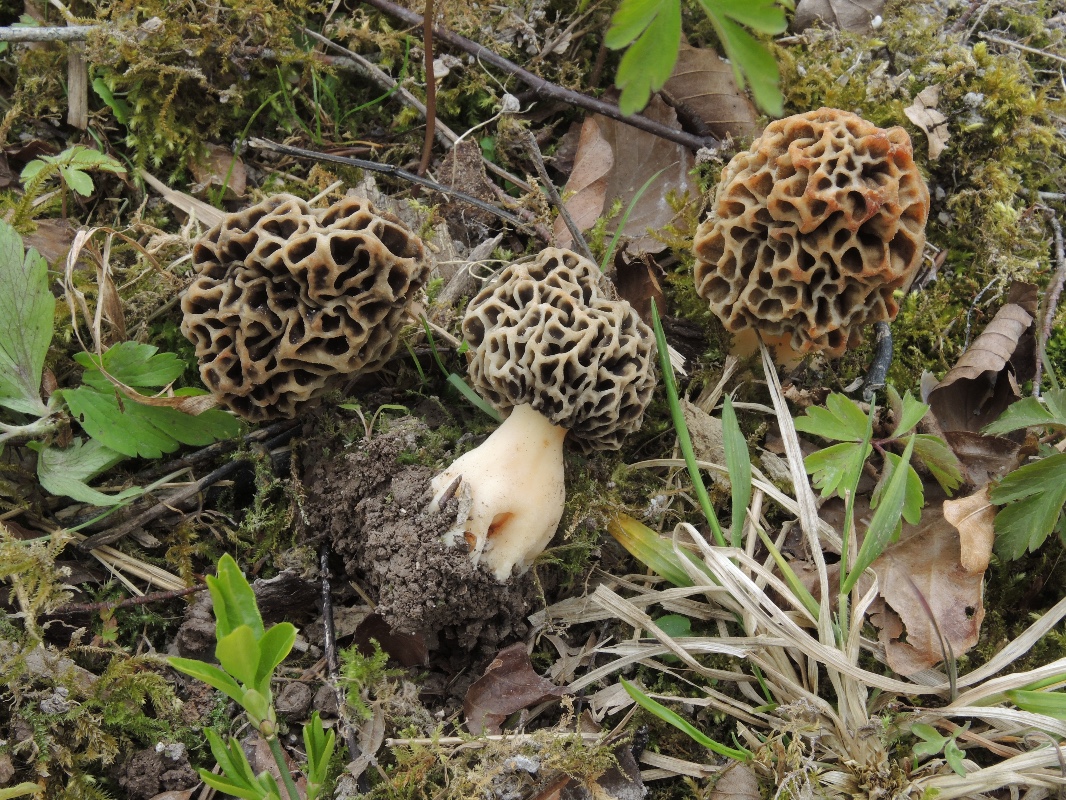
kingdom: Fungi
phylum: Ascomycota
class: Pezizomycetes
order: Pezizales
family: Morchellaceae
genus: Morchella
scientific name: Morchella esculenta
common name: almindelig morkel
